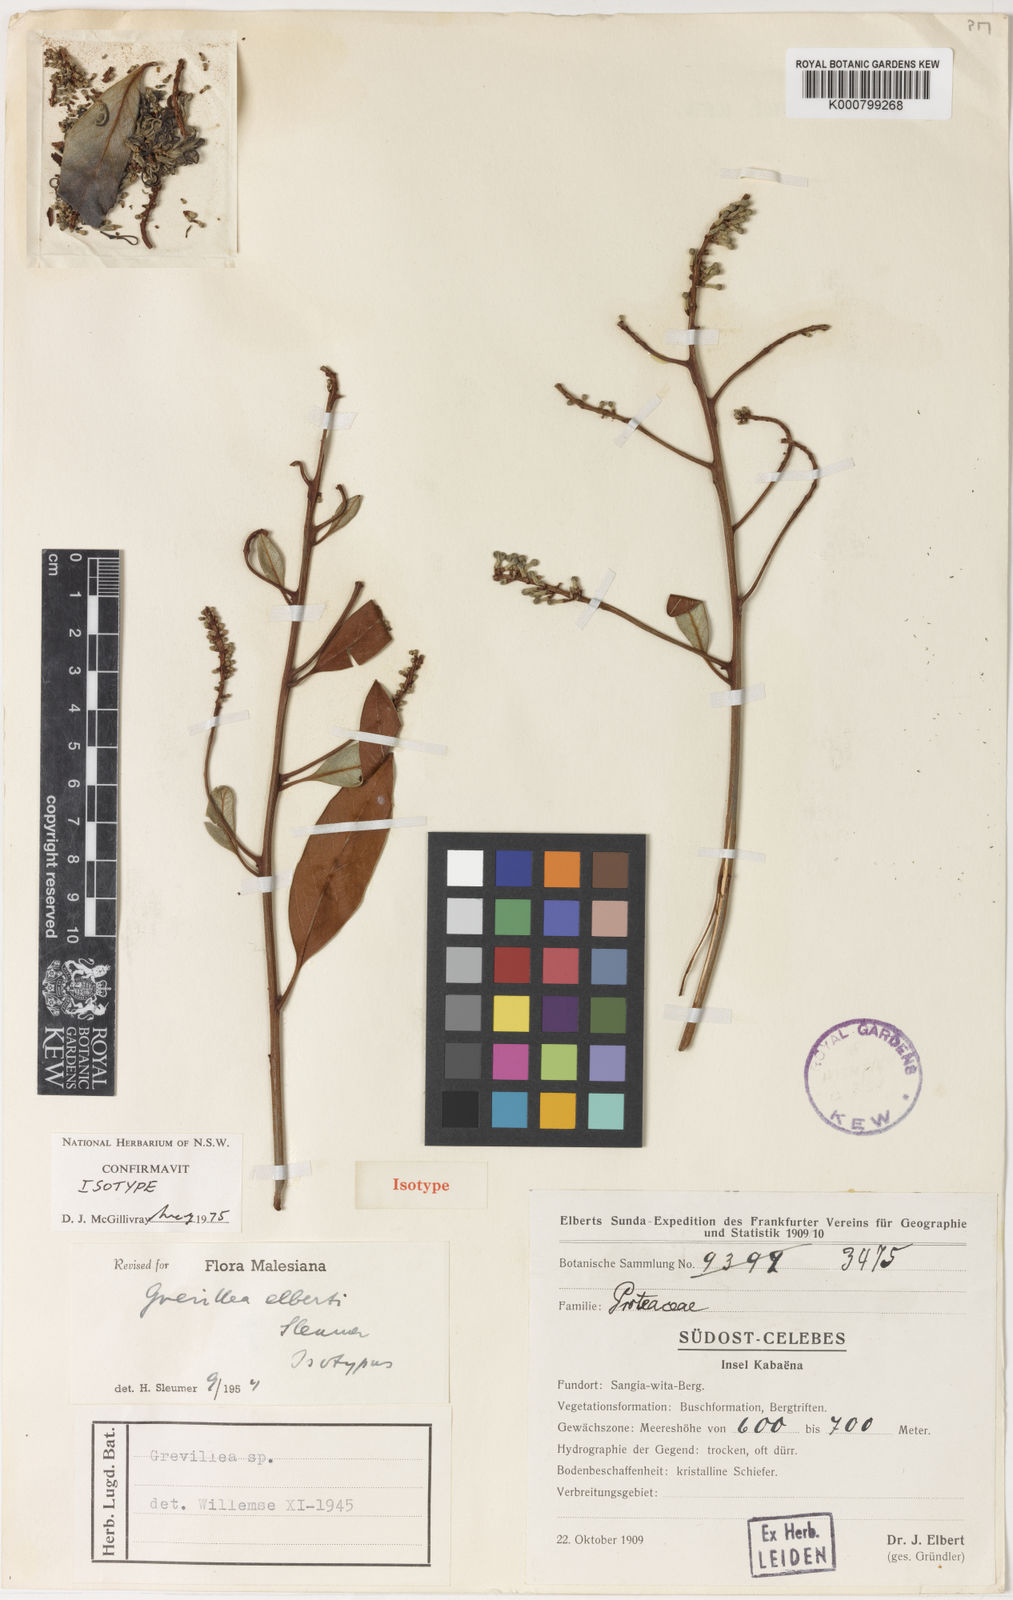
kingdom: Plantae
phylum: Tracheophyta
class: Magnoliopsida
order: Proteales
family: Proteaceae
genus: Grevillea
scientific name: Grevillea elbertii
